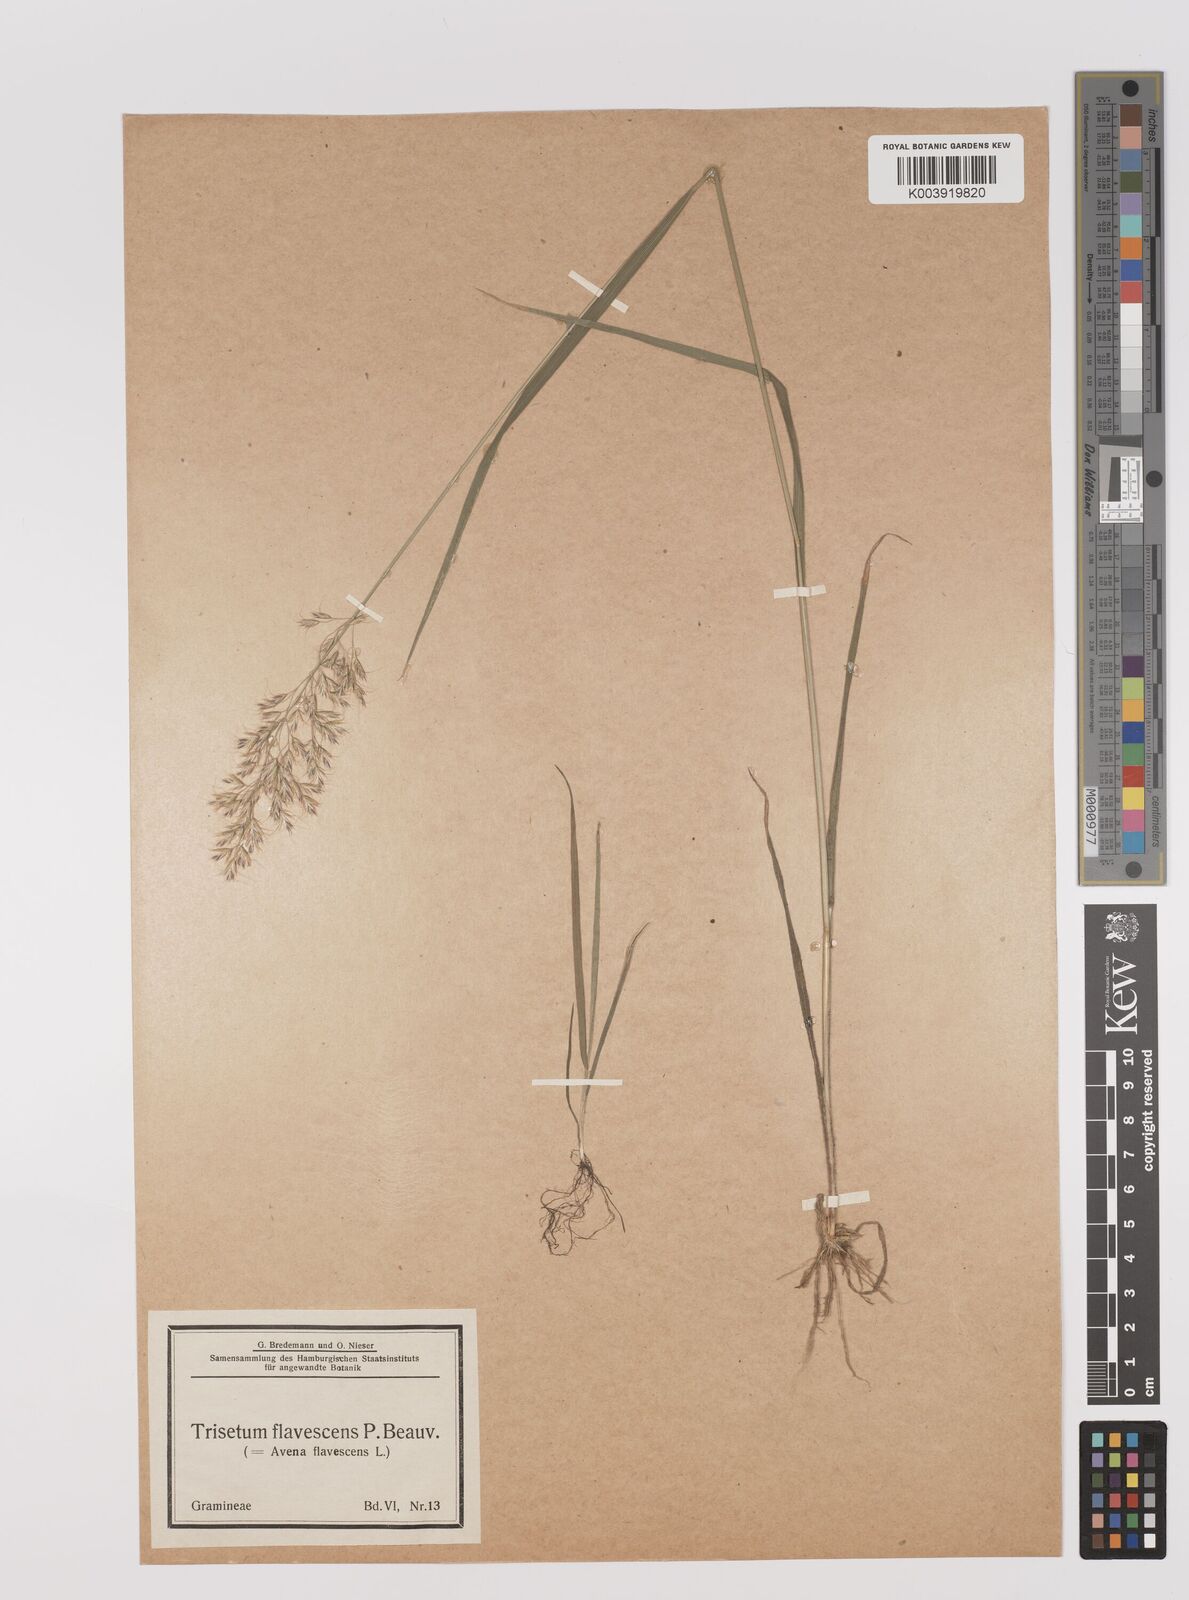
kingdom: Plantae
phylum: Tracheophyta
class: Liliopsida
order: Poales
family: Poaceae
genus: Trisetum
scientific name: Trisetum flavescens
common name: Yellow oat-grass
